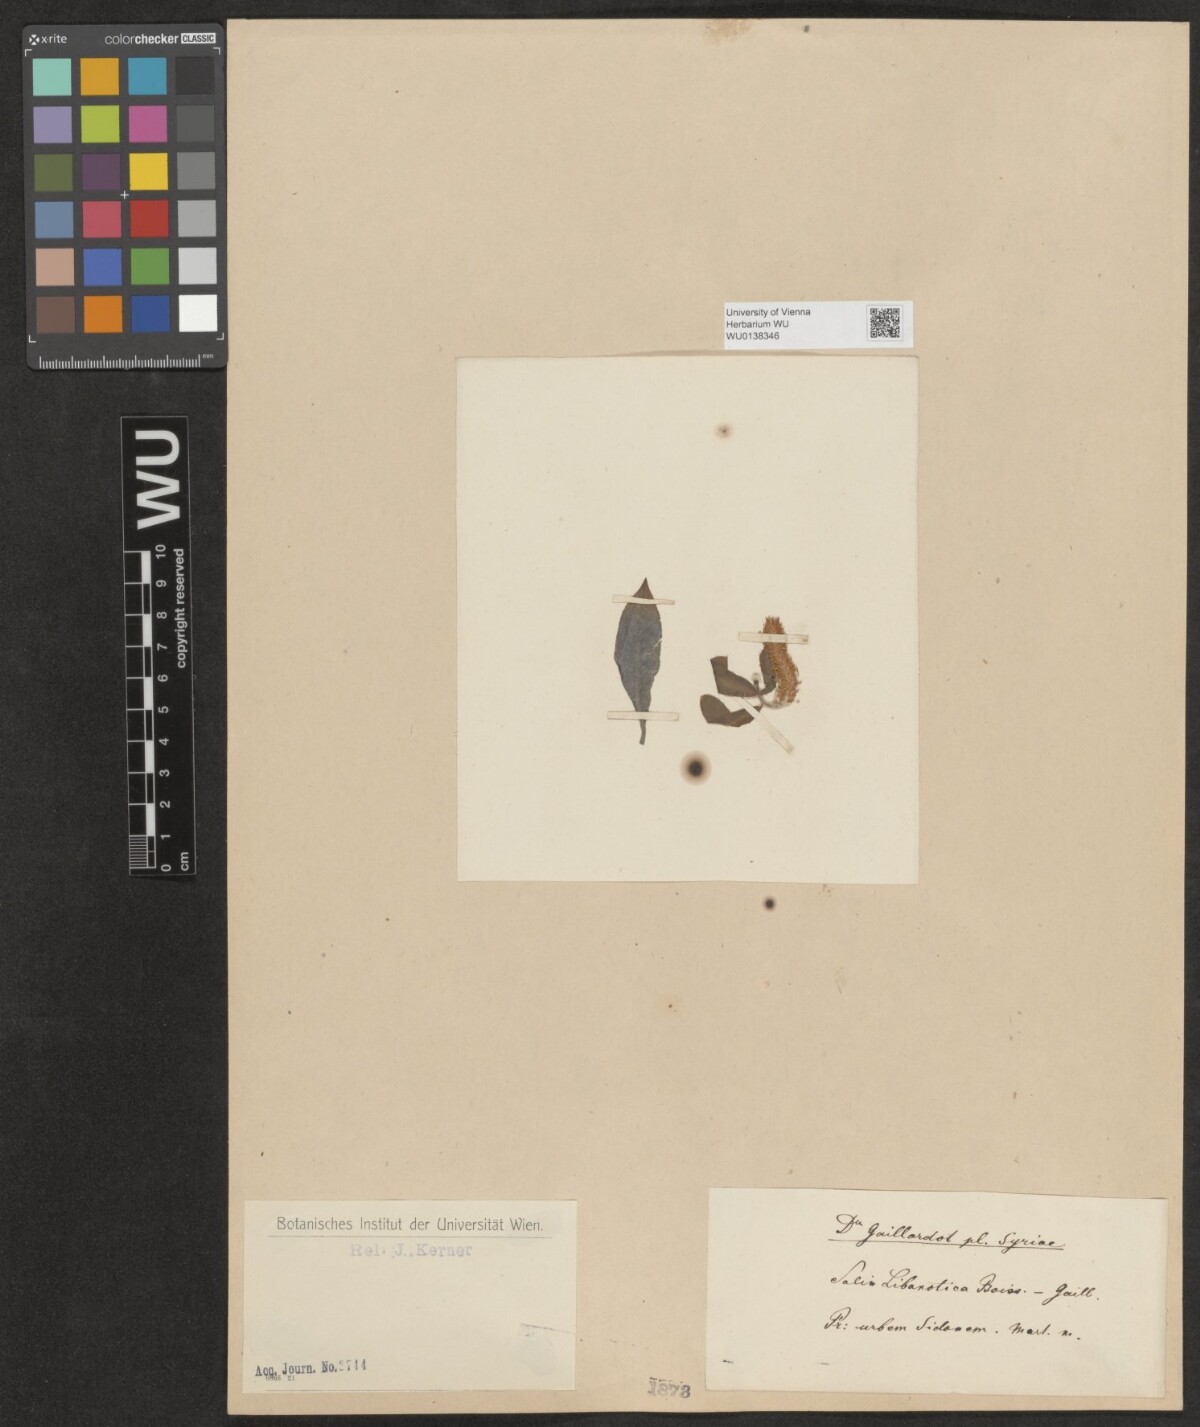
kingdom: Plantae
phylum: Tracheophyta
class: Magnoliopsida
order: Malpighiales
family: Salicaceae
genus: Salix
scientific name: Salix alba
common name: White willow
